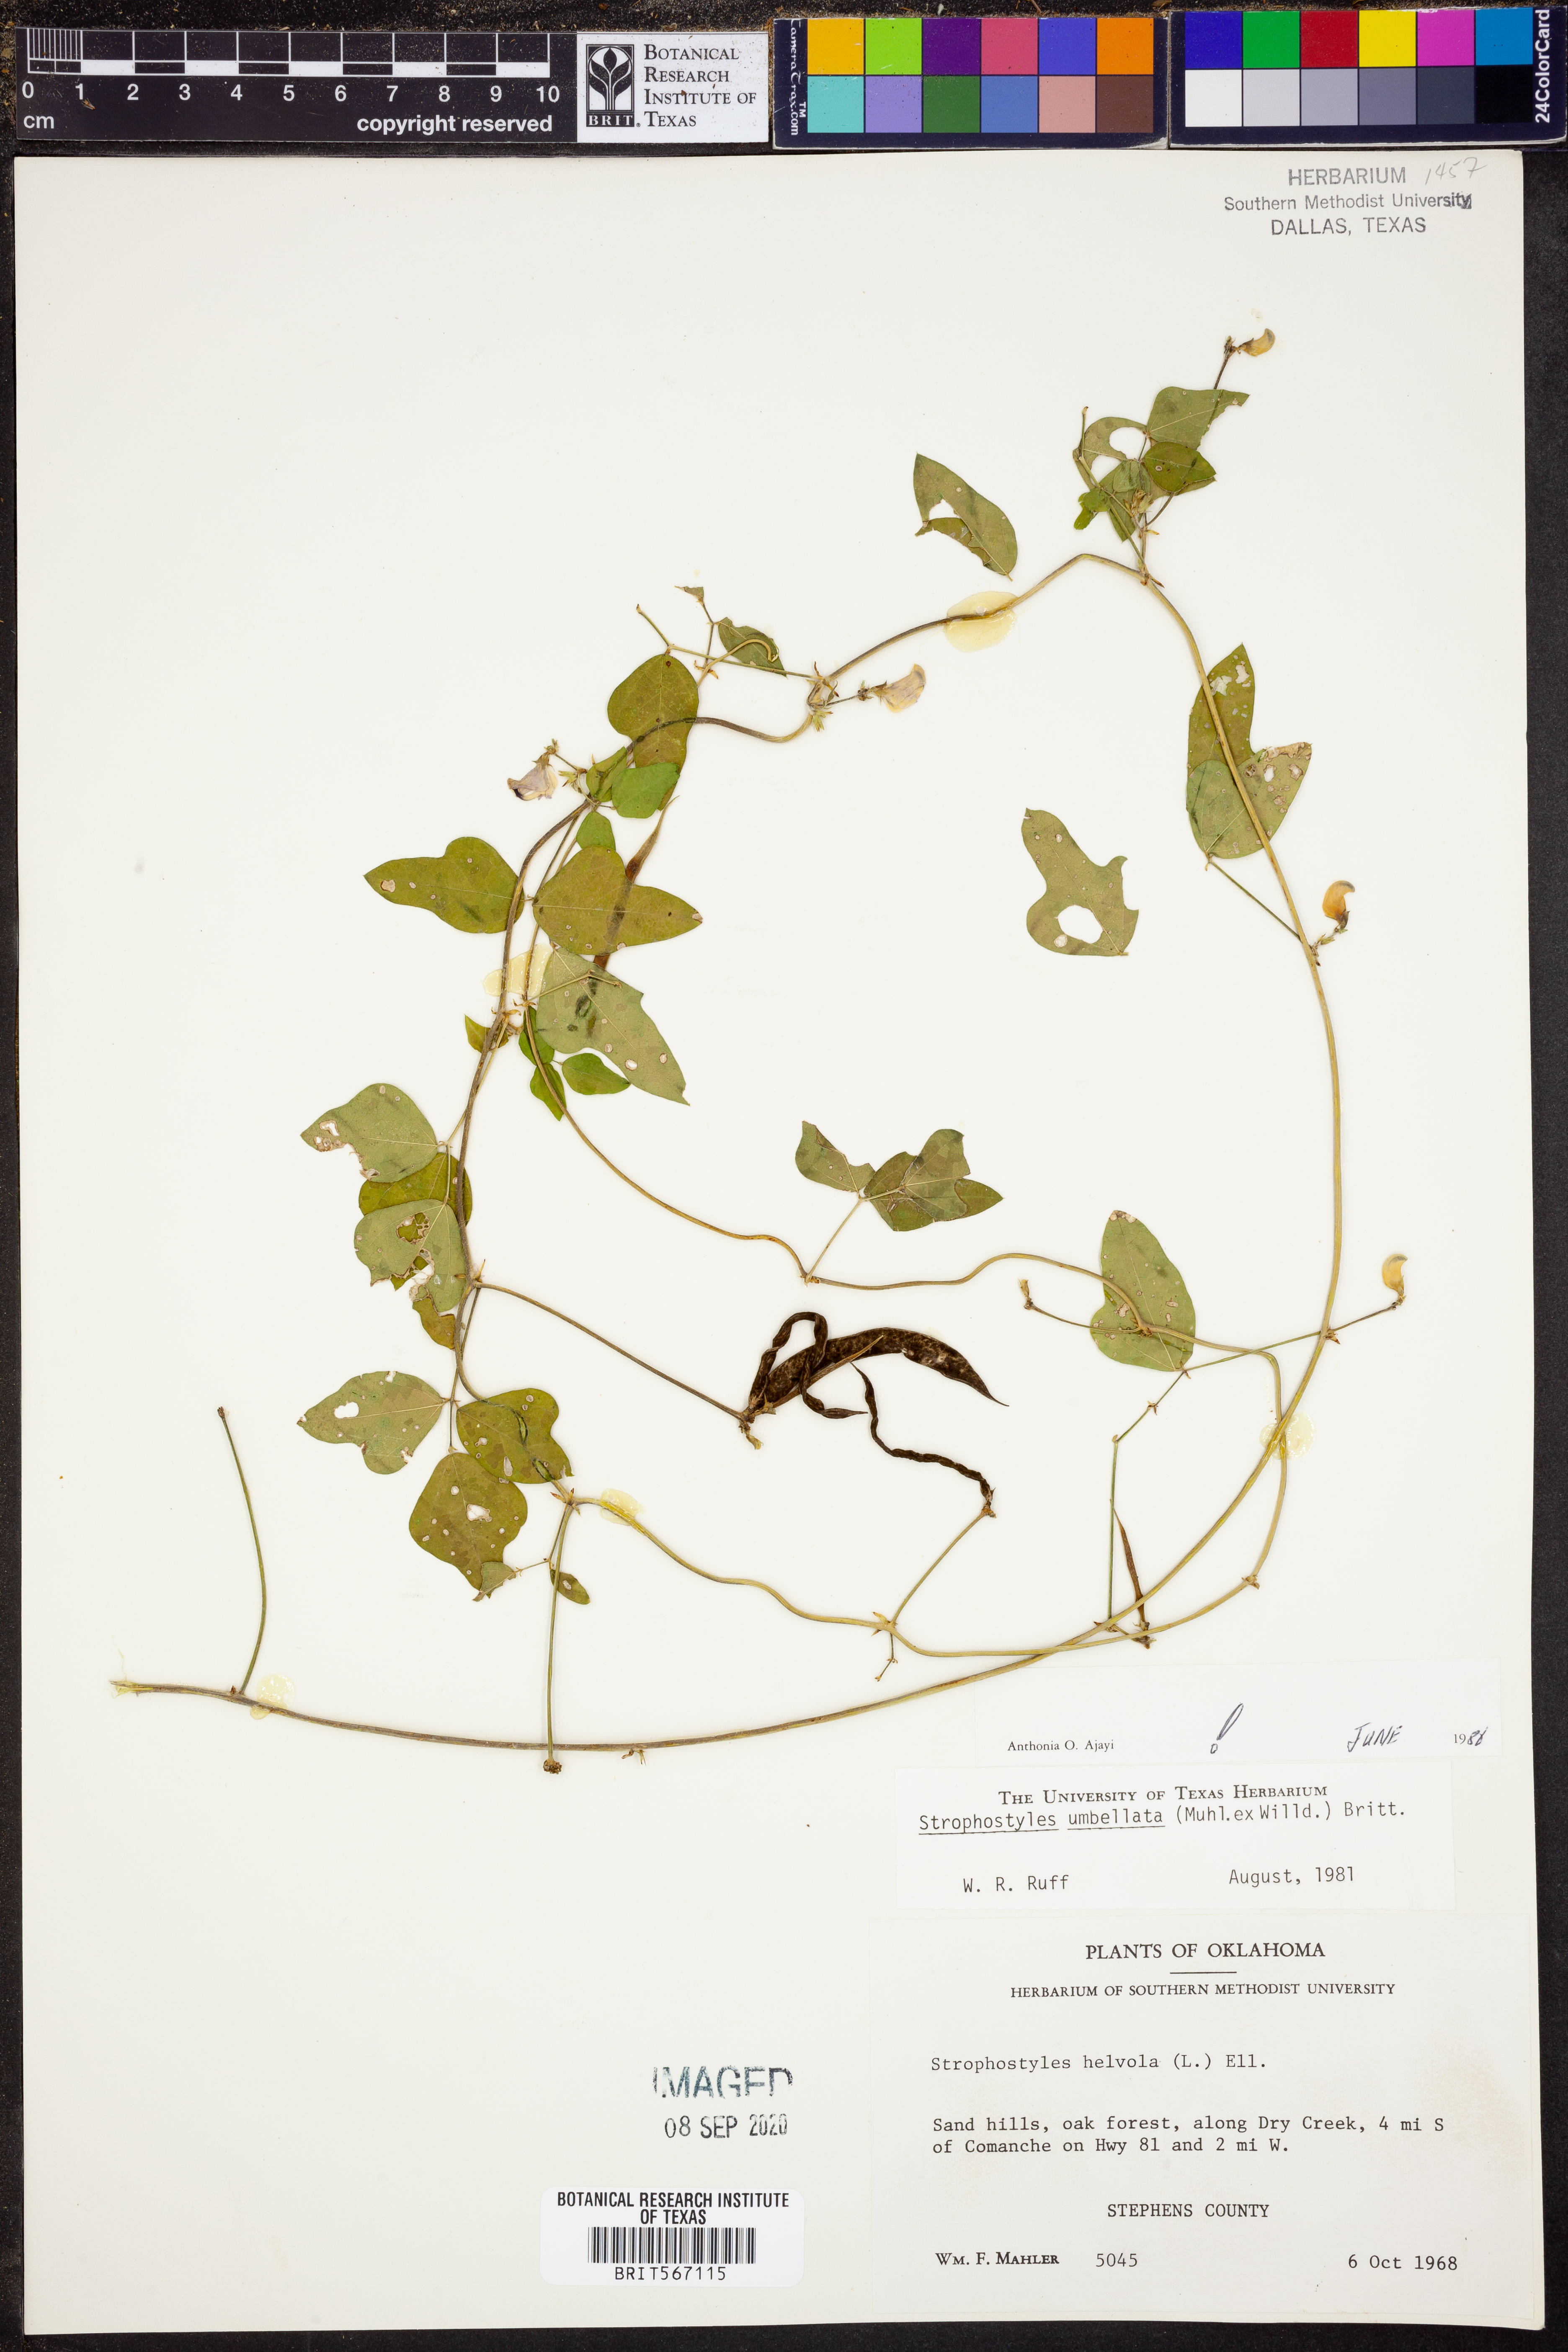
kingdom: Plantae
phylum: Tracheophyta
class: Magnoliopsida
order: Fabales
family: Fabaceae
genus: Strophostyles
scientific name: Strophostyles umbellata
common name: Perennial wild bean
